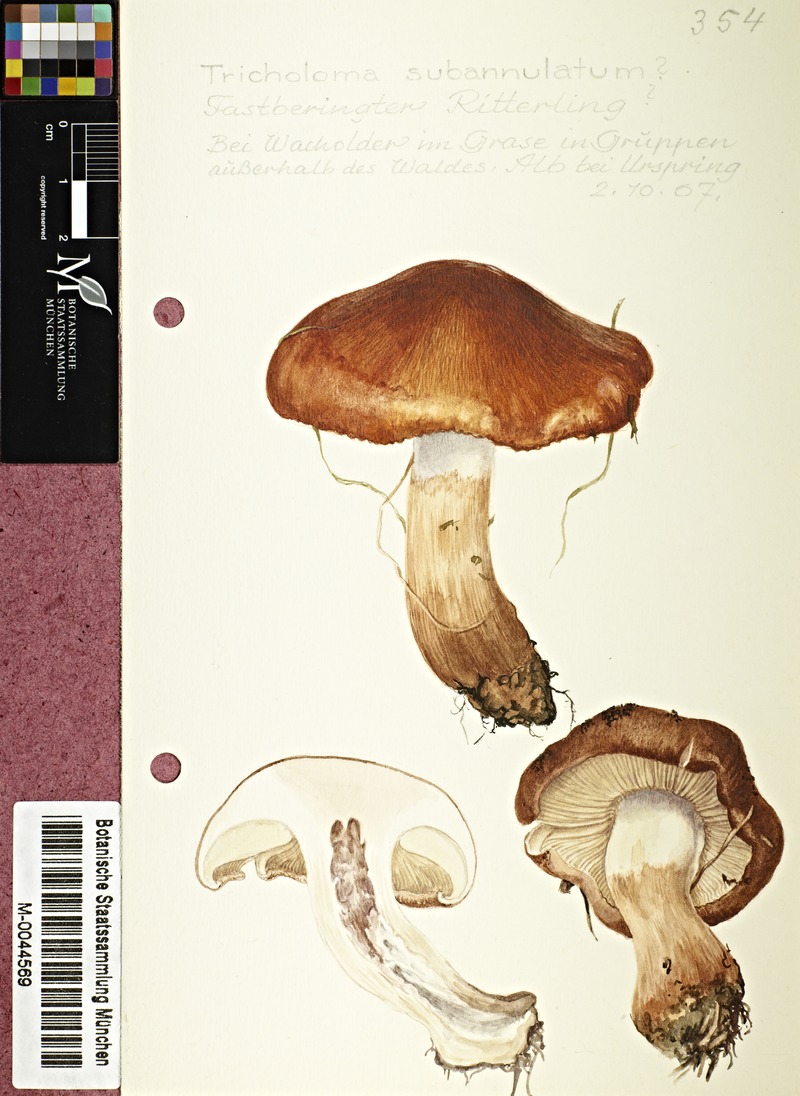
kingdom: Fungi
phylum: Basidiomycota
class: Agaricomycetes
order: Agaricales
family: Tricholomataceae
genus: Tricholoma
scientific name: Tricholoma fracticum
